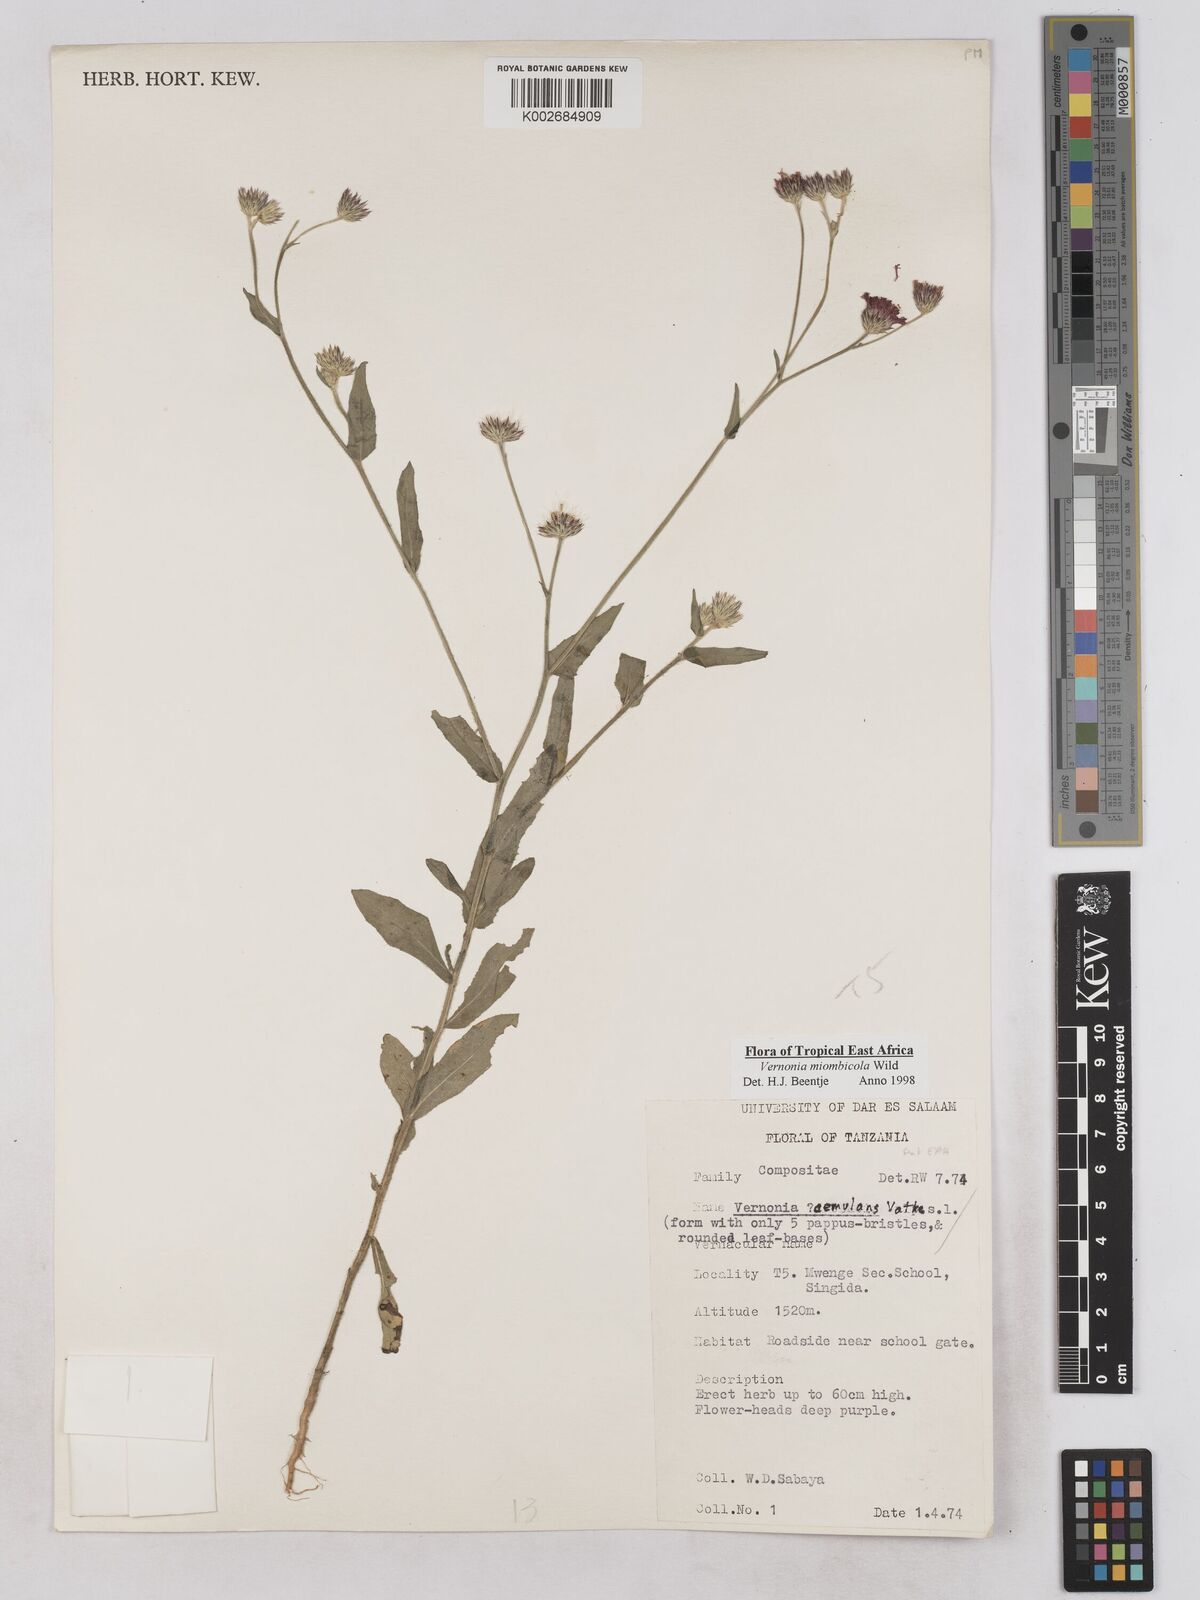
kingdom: Plantae
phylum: Tracheophyta
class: Magnoliopsida
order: Asterales
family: Asteraceae
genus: Vernonia
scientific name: Vernonia miombicola
